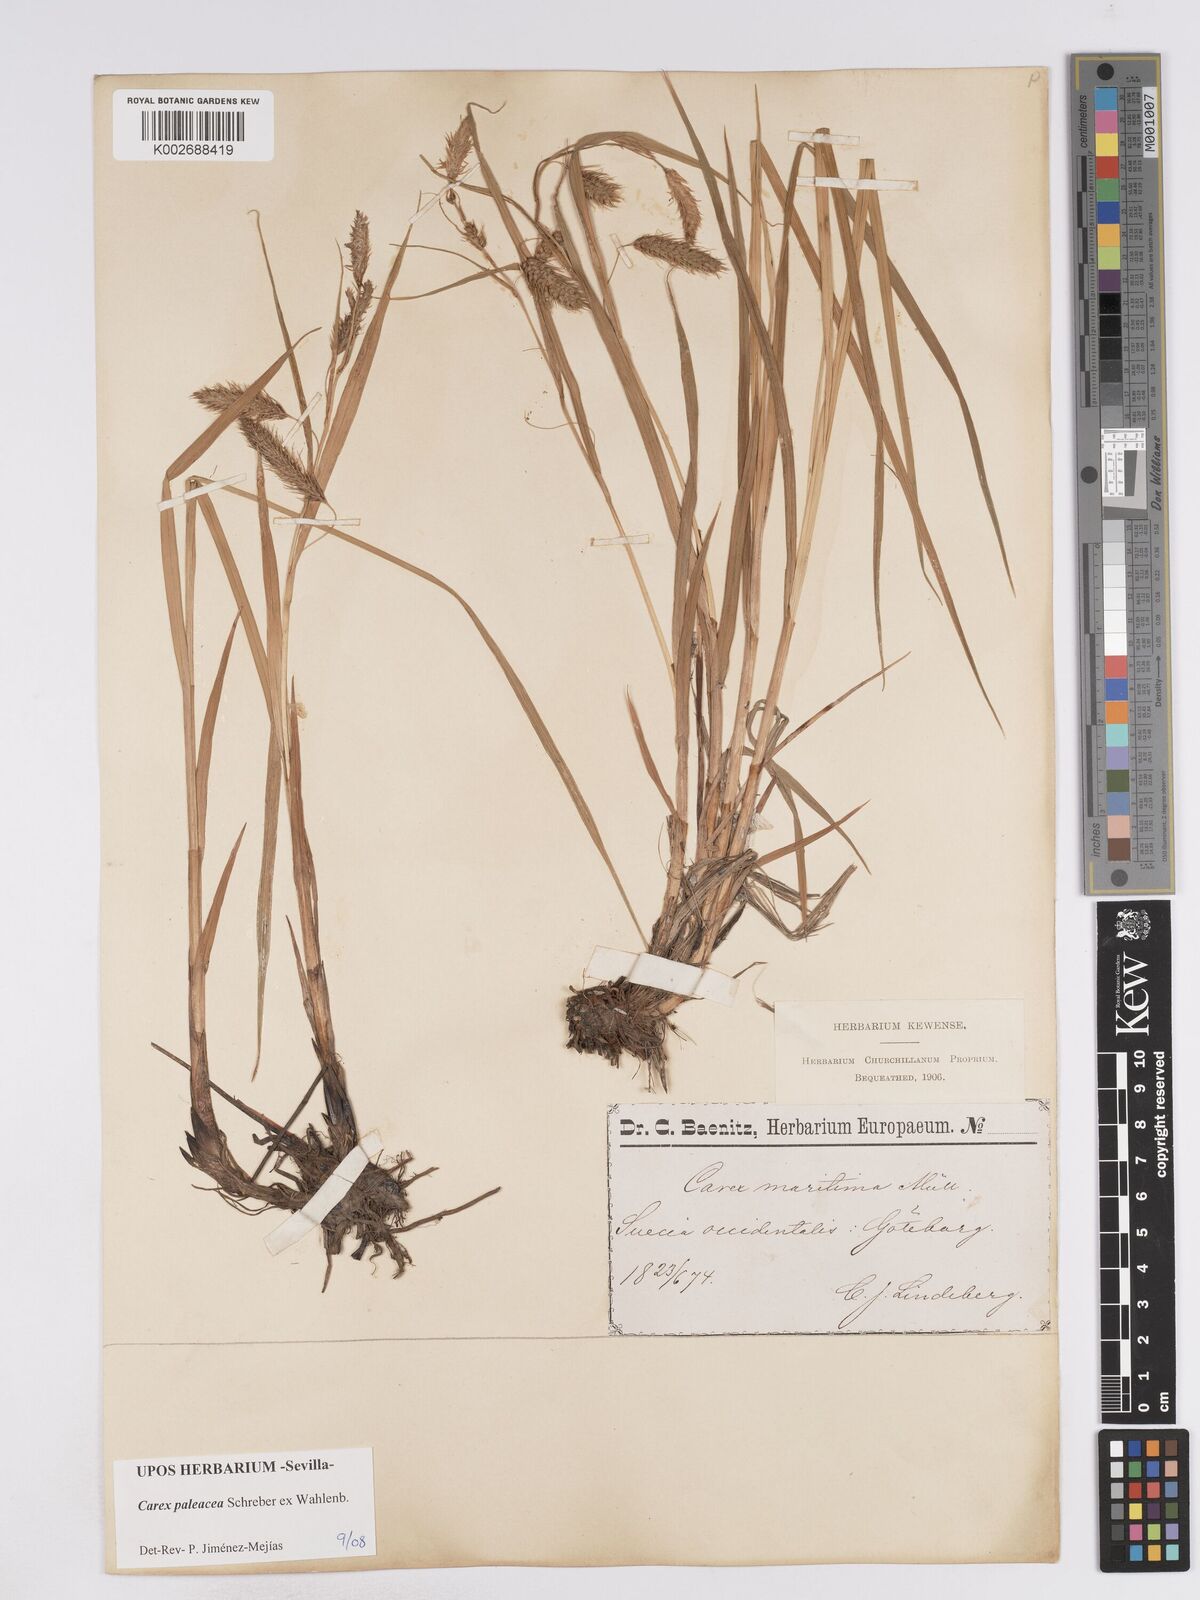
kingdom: Plantae
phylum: Tracheophyta
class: Liliopsida
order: Poales
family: Cyperaceae
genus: Carex
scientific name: Carex paleacea
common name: Chaffy sedge
